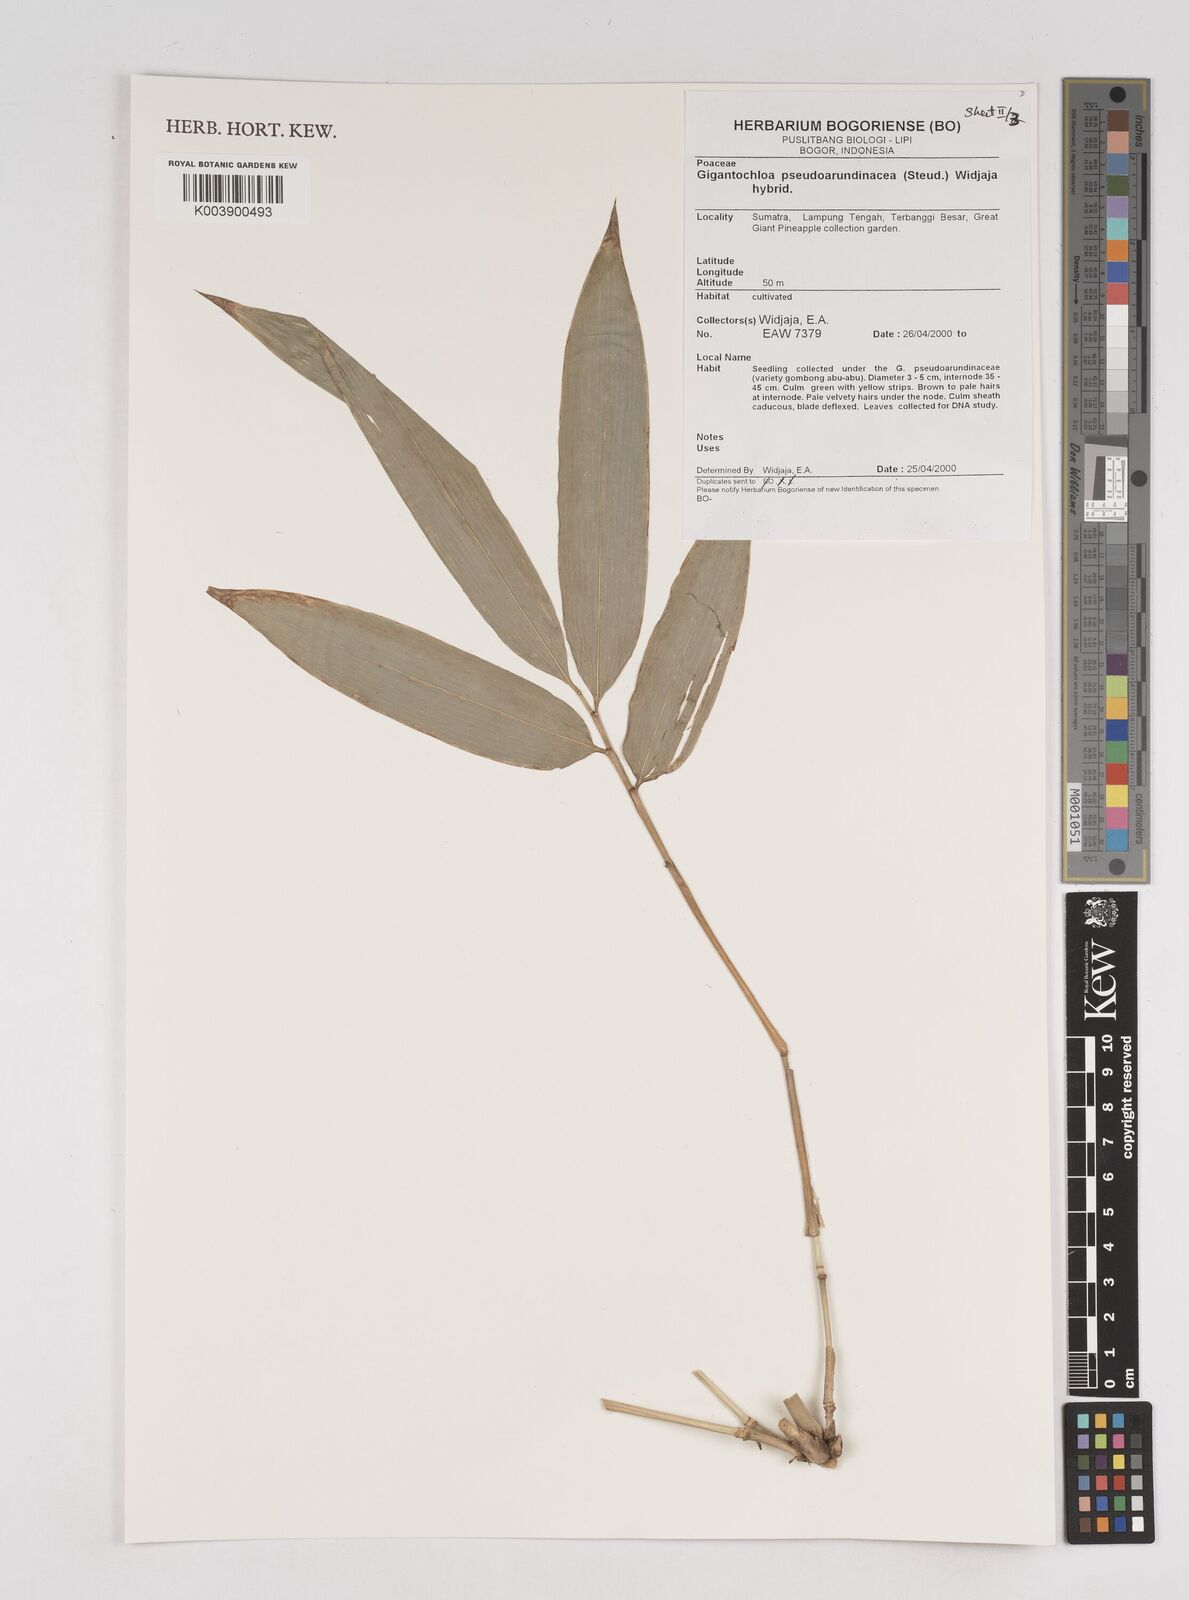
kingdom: Plantae
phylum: Tracheophyta
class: Liliopsida
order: Poales
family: Poaceae
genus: Gigantochloa
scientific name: Gigantochloa verticillata
